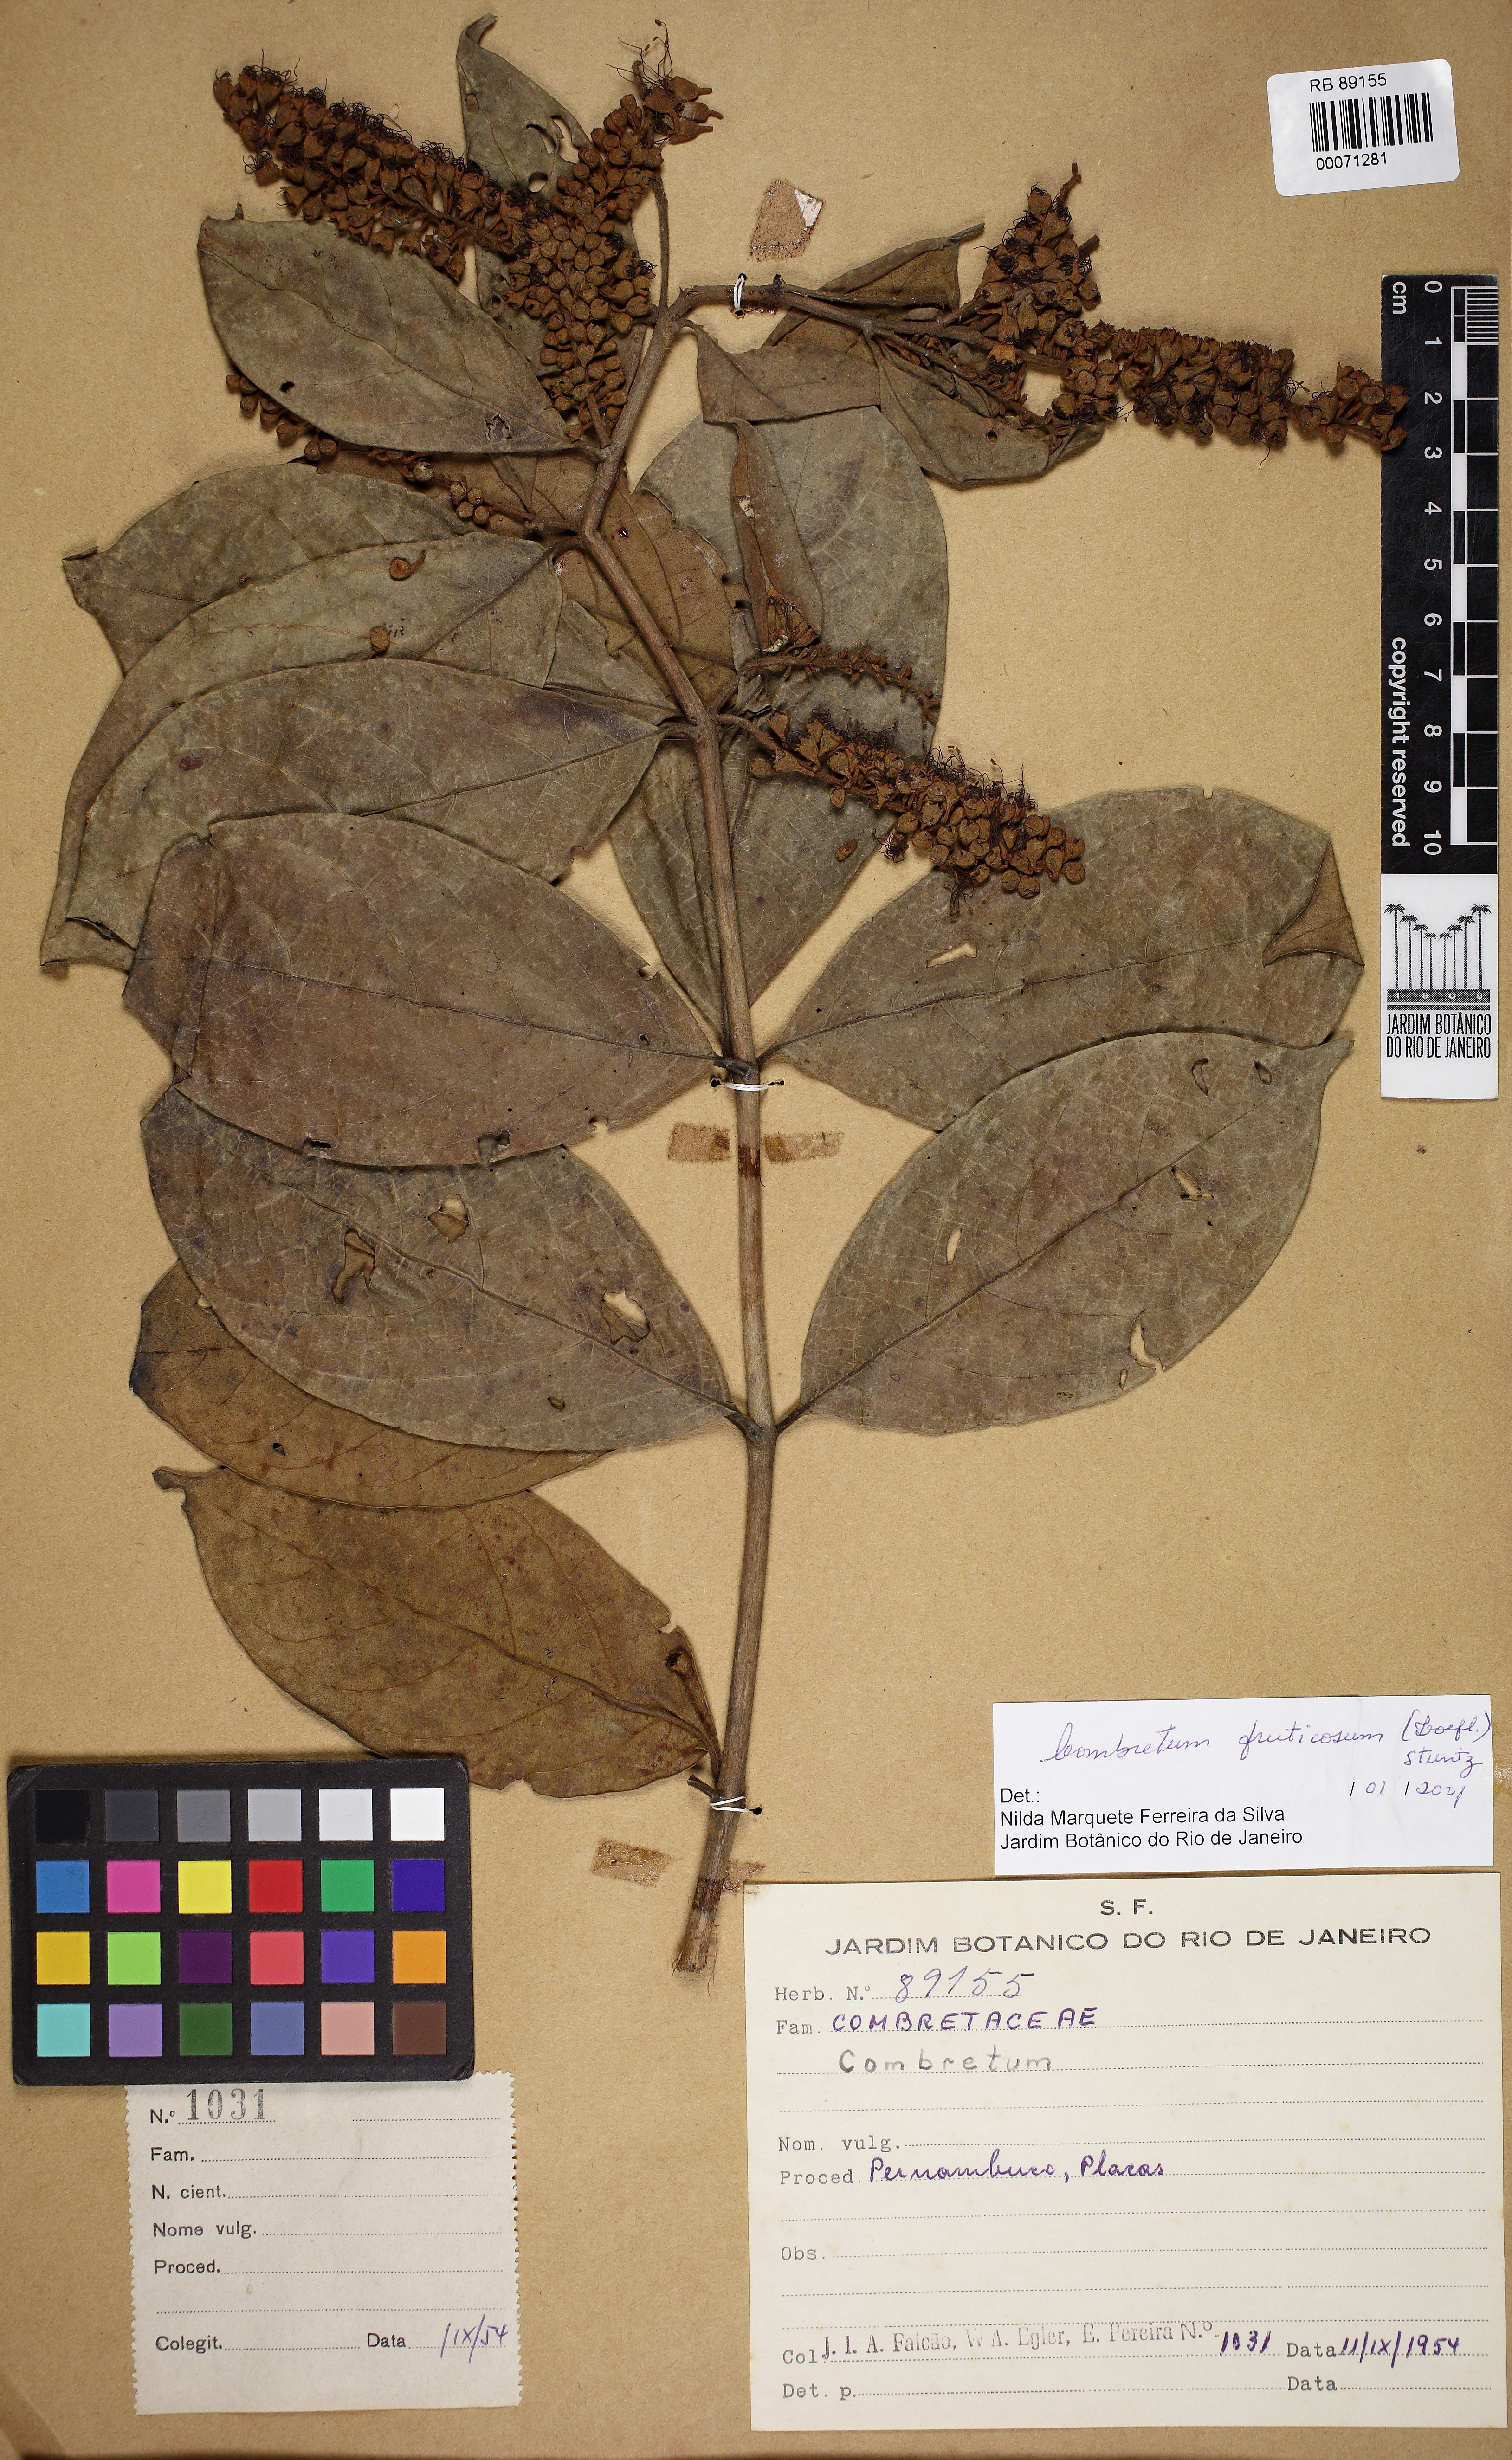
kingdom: Plantae
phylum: Tracheophyta
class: Magnoliopsida
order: Myrtales
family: Combretaceae
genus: Combretum
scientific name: Combretum fruticosum
